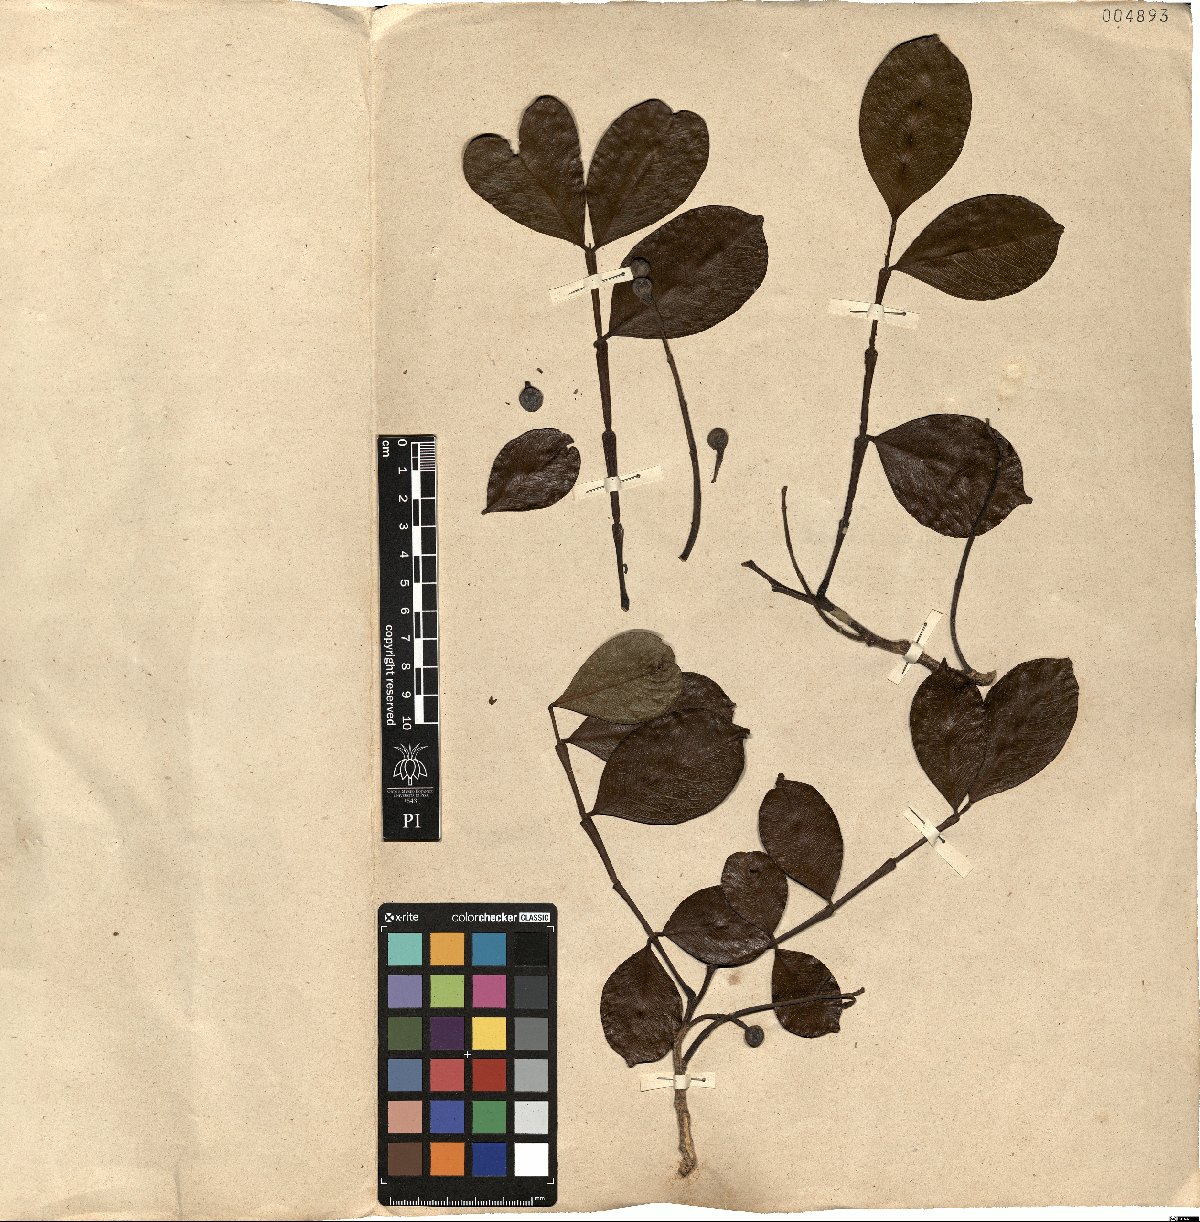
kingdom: Plantae
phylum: Tracheophyta
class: Magnoliopsida
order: Fabales
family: Fabaceae
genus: Swartzia
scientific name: Swartzia langsdorffii
